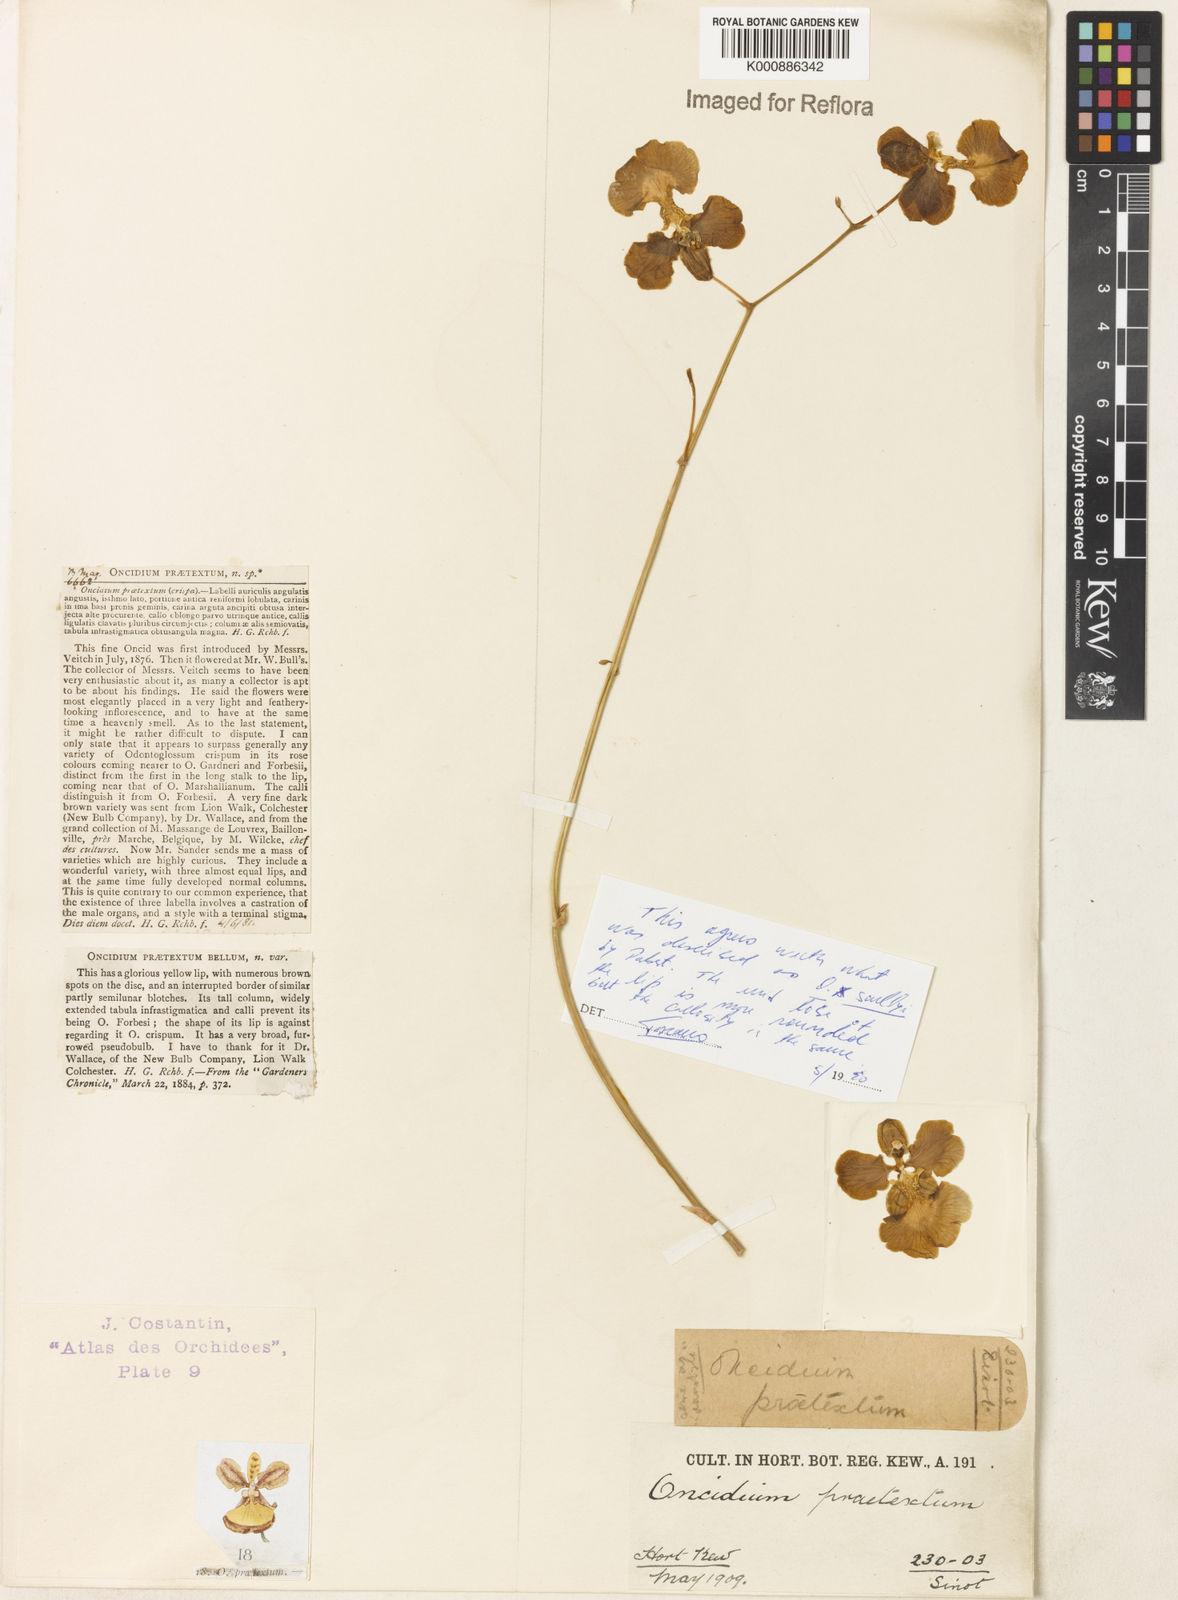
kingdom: Plantae
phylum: Tracheophyta
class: Liliopsida
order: Asparagales
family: Orchidaceae
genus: Gomesa
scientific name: Gomesa scullyi
